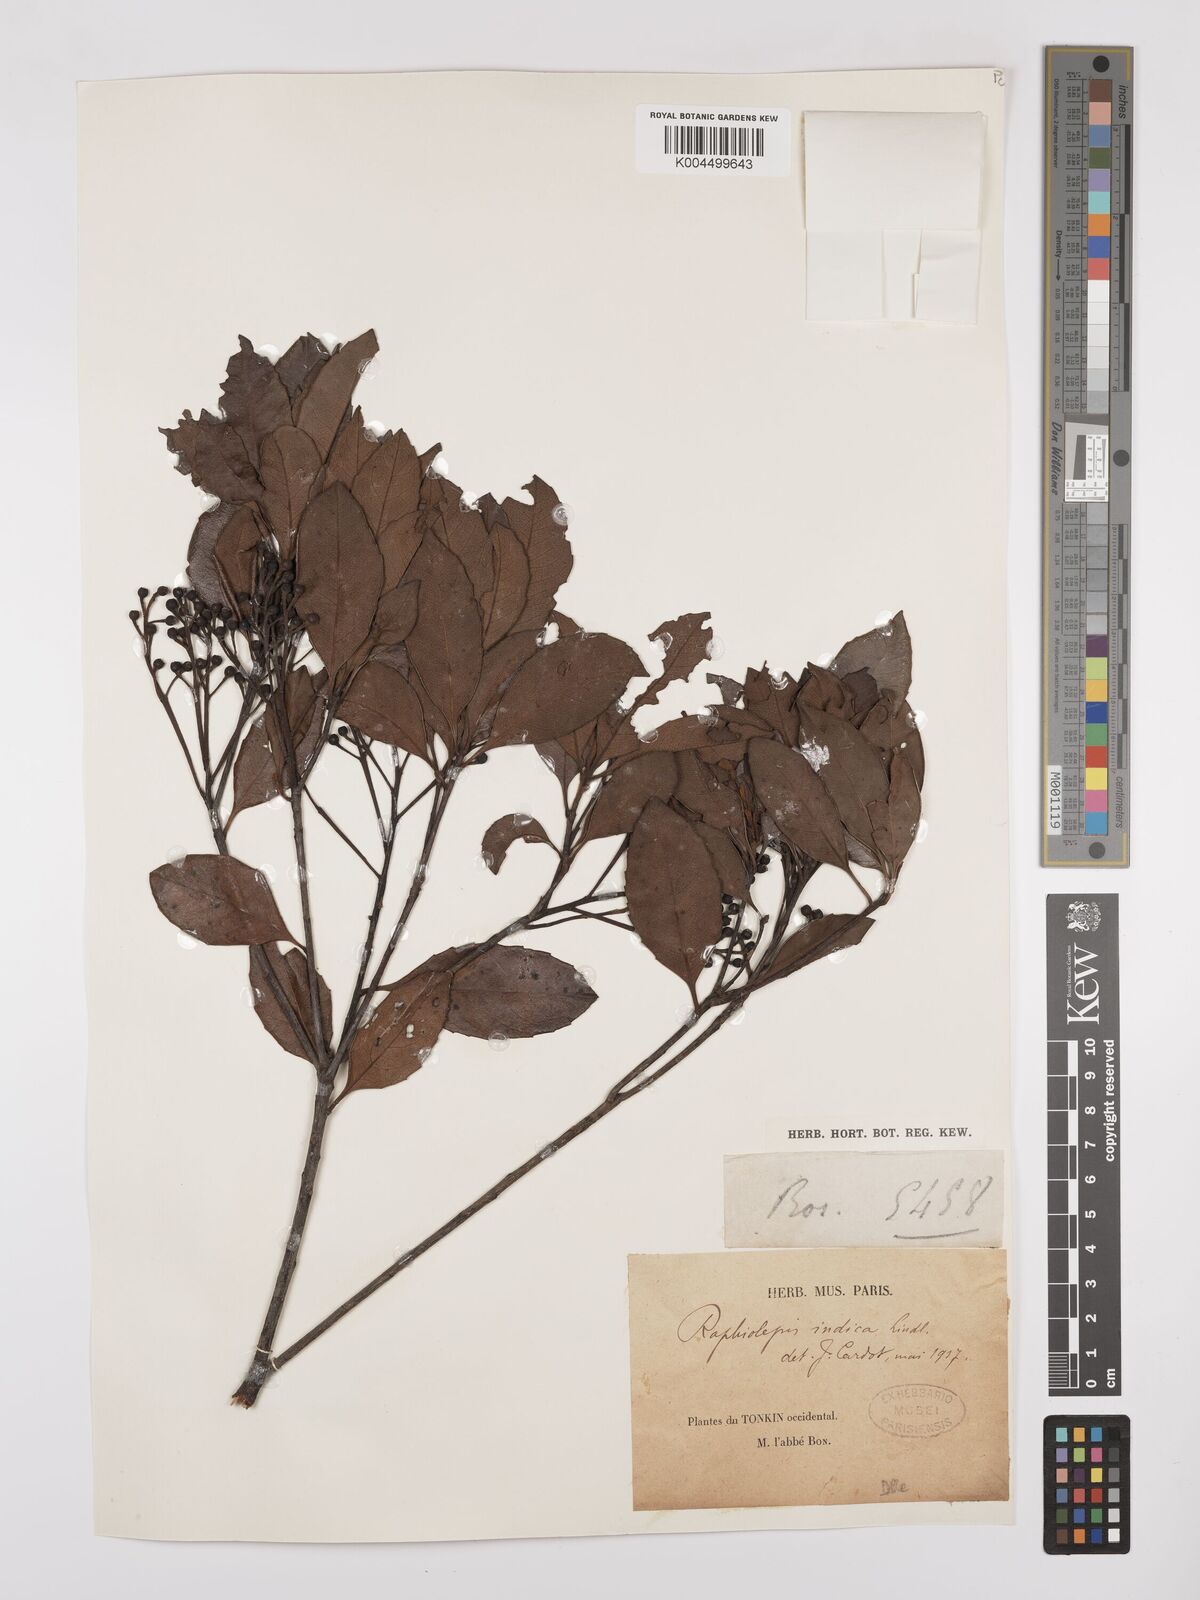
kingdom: Plantae
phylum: Tracheophyta
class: Magnoliopsida
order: Rosales
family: Rosaceae
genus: Rhaphiolepis
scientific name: Rhaphiolepis indica
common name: India-hawthorn
